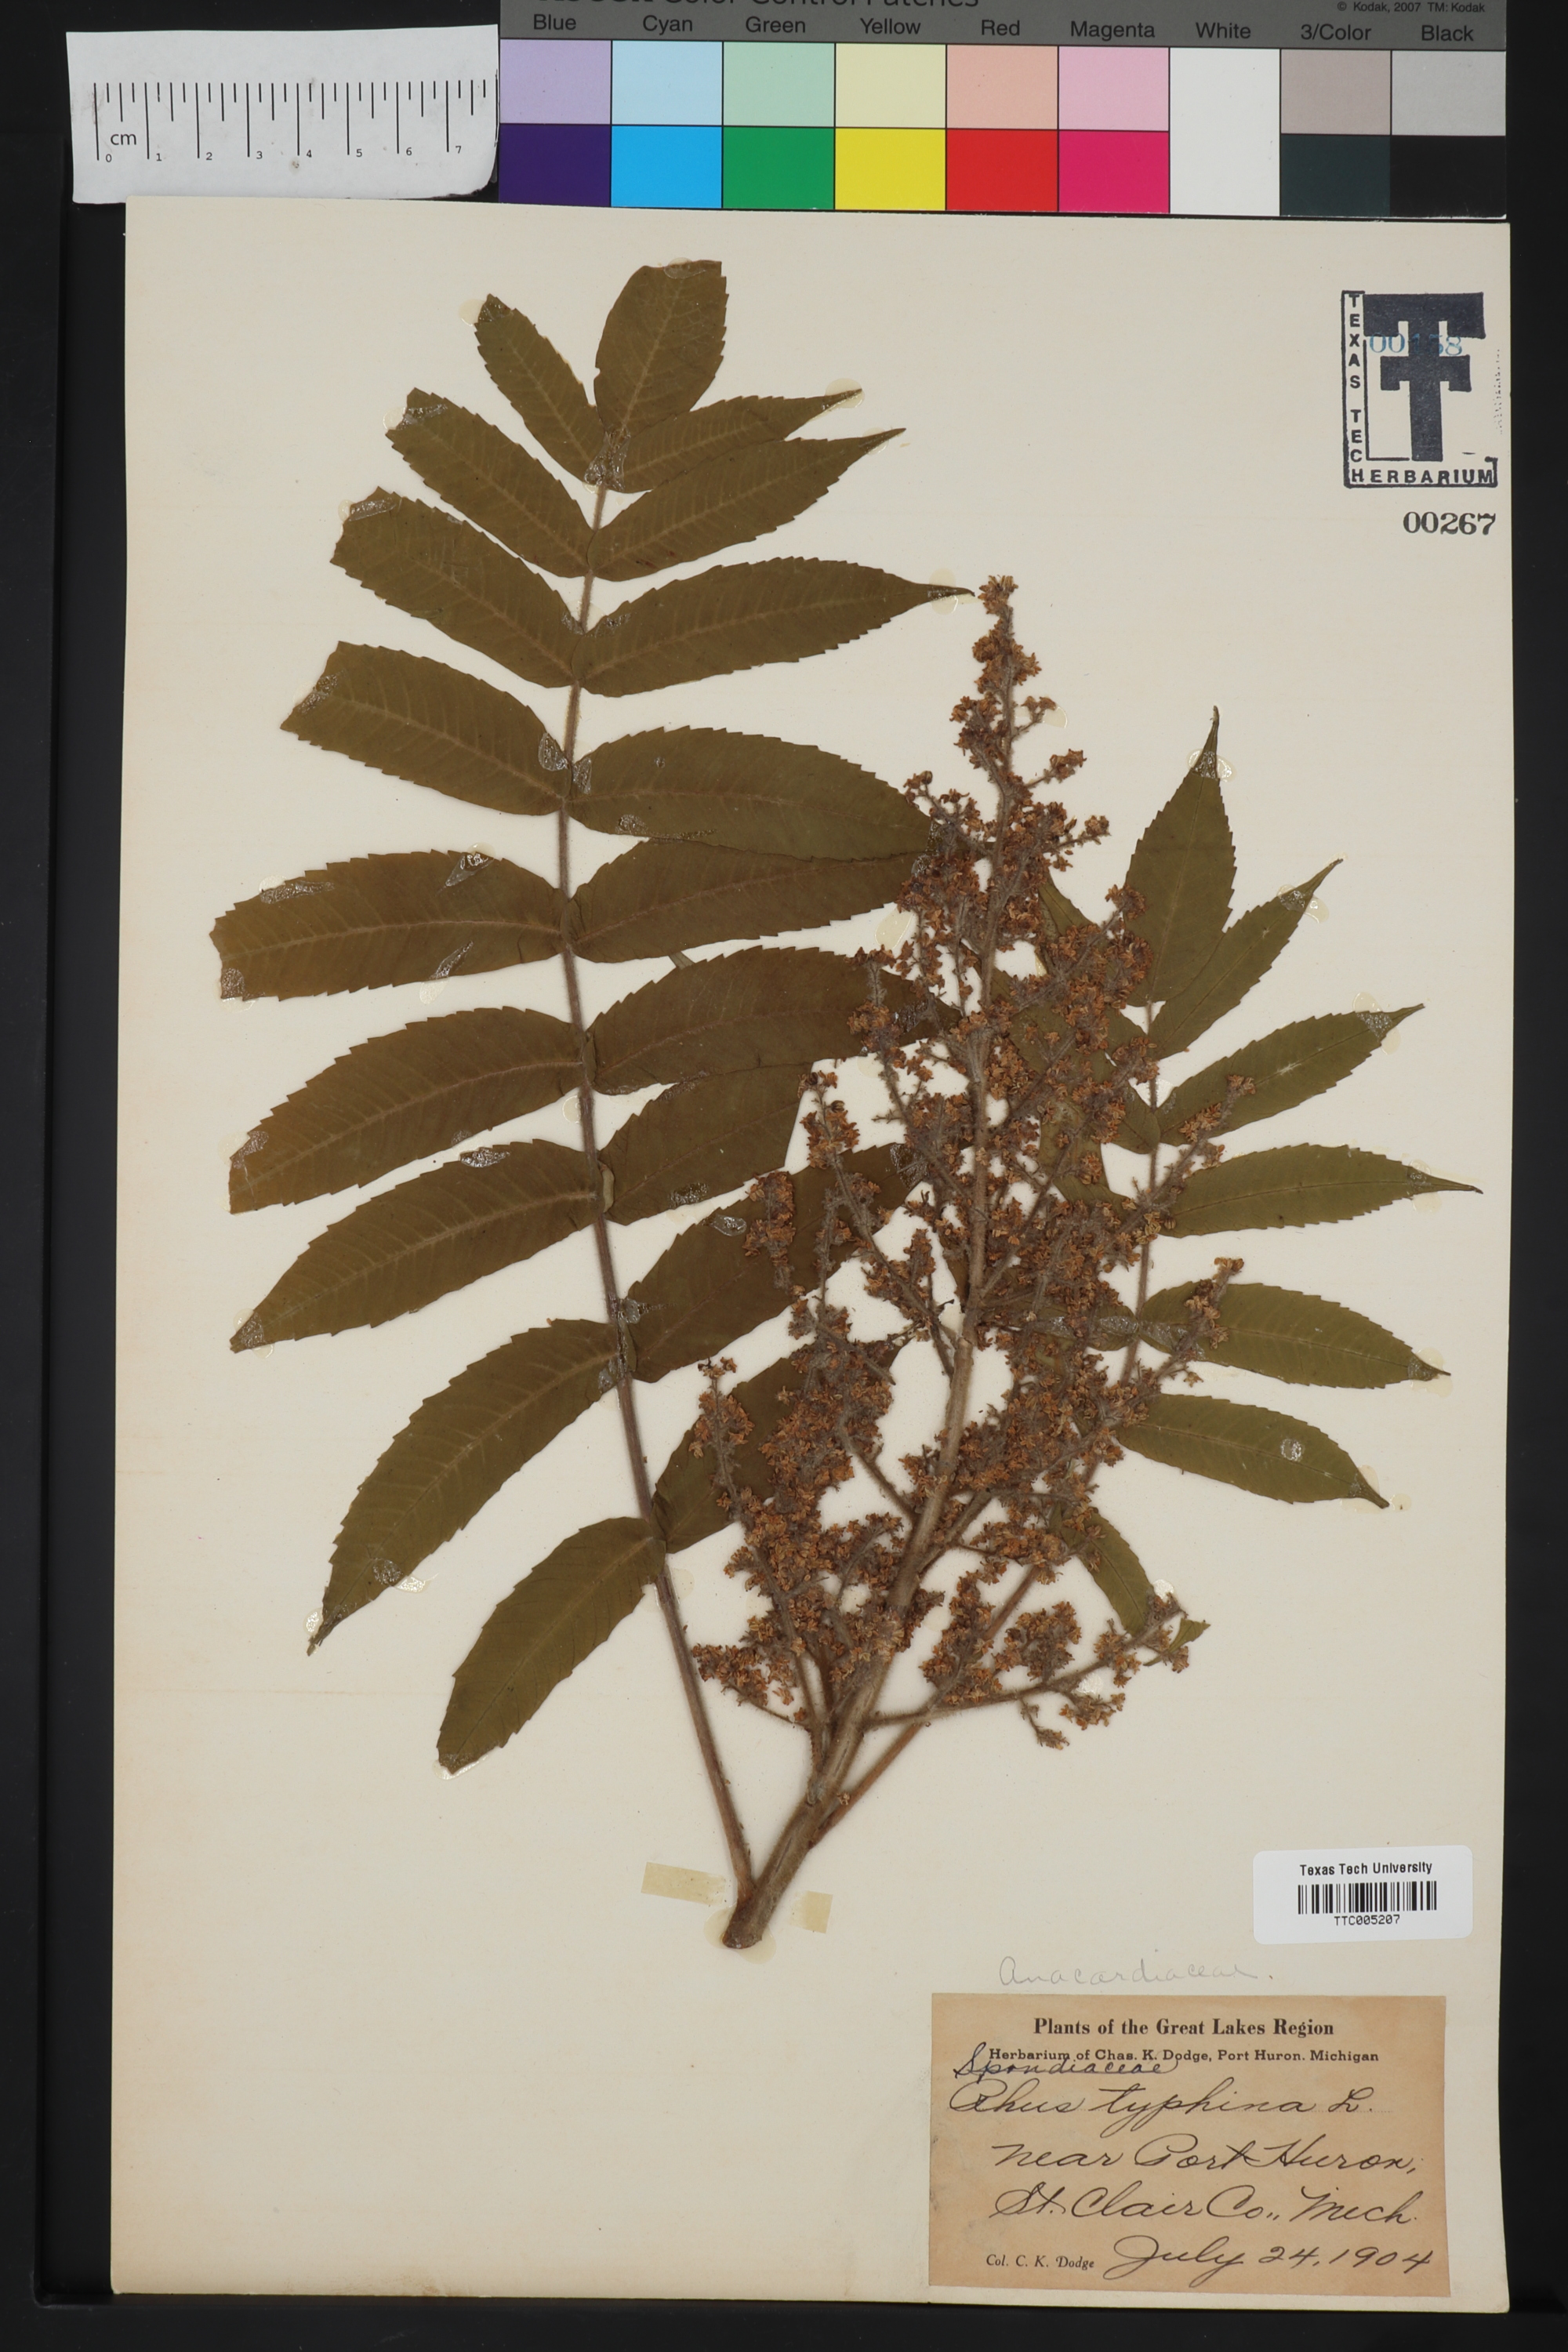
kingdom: Plantae
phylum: Tracheophyta
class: Magnoliopsida
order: Sapindales
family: Anacardiaceae
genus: Rhus
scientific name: Rhus typhina
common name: Staghorn sumac
